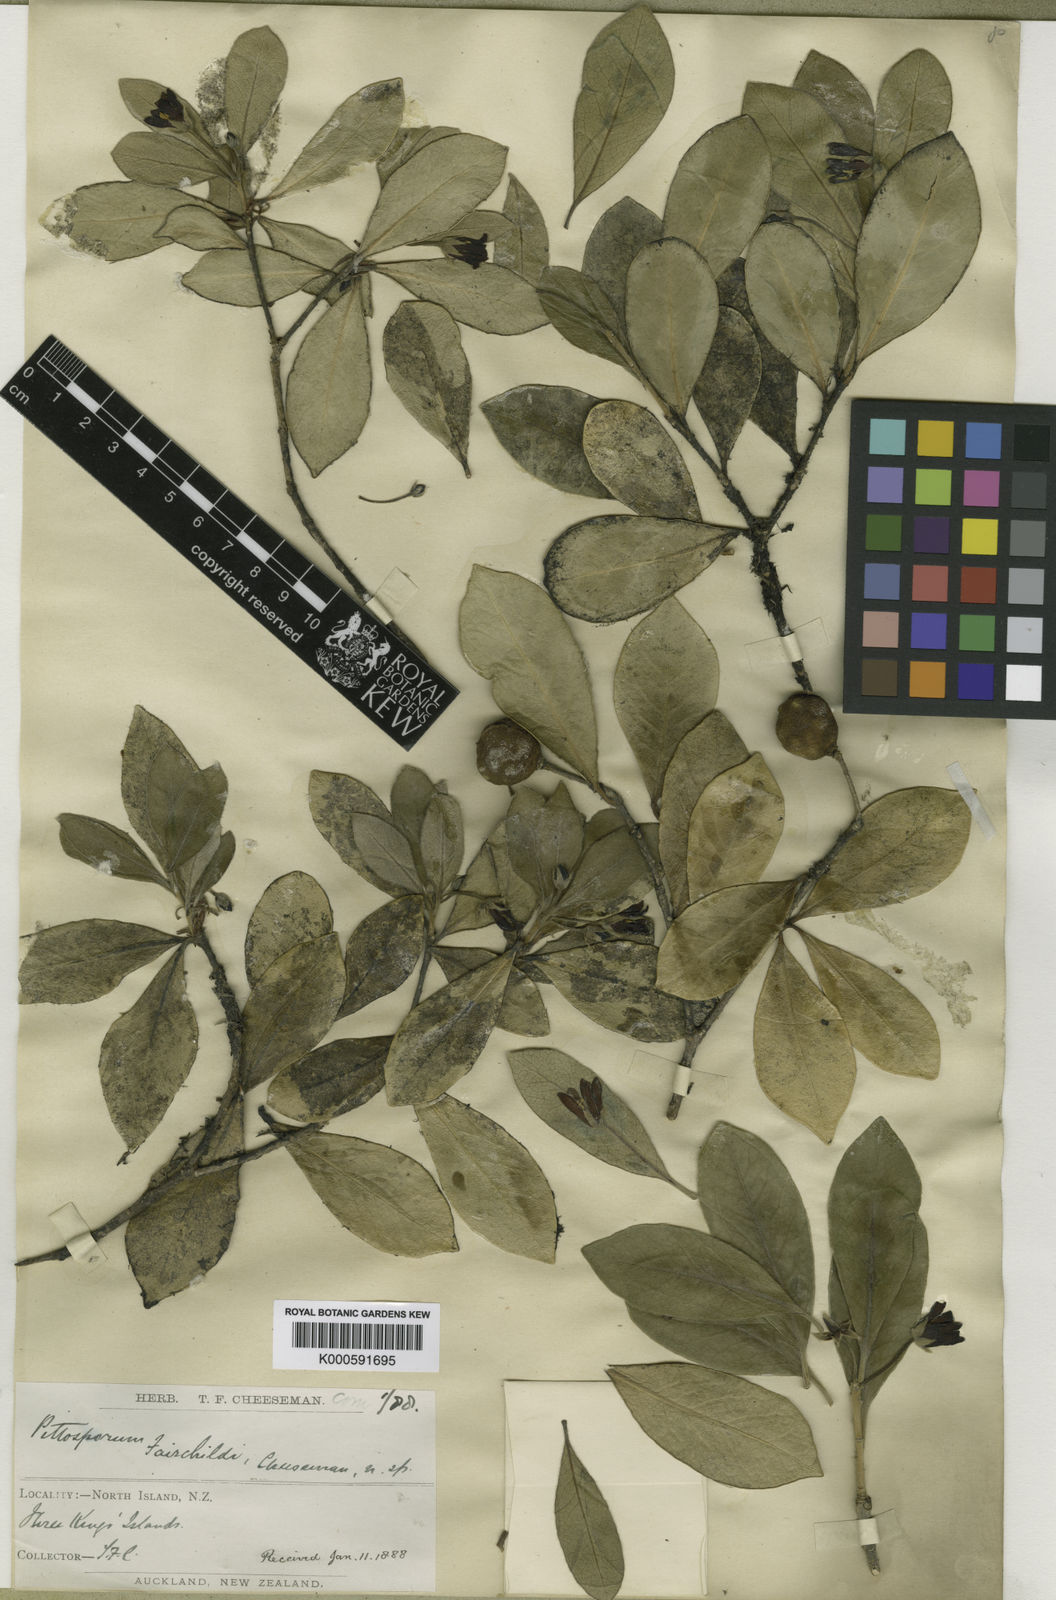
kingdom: Plantae
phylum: Tracheophyta
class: Magnoliopsida
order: Apiales
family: Pittosporaceae
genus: Pittosporum
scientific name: Pittosporum fairchildii
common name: Fairchild's kohuhu
